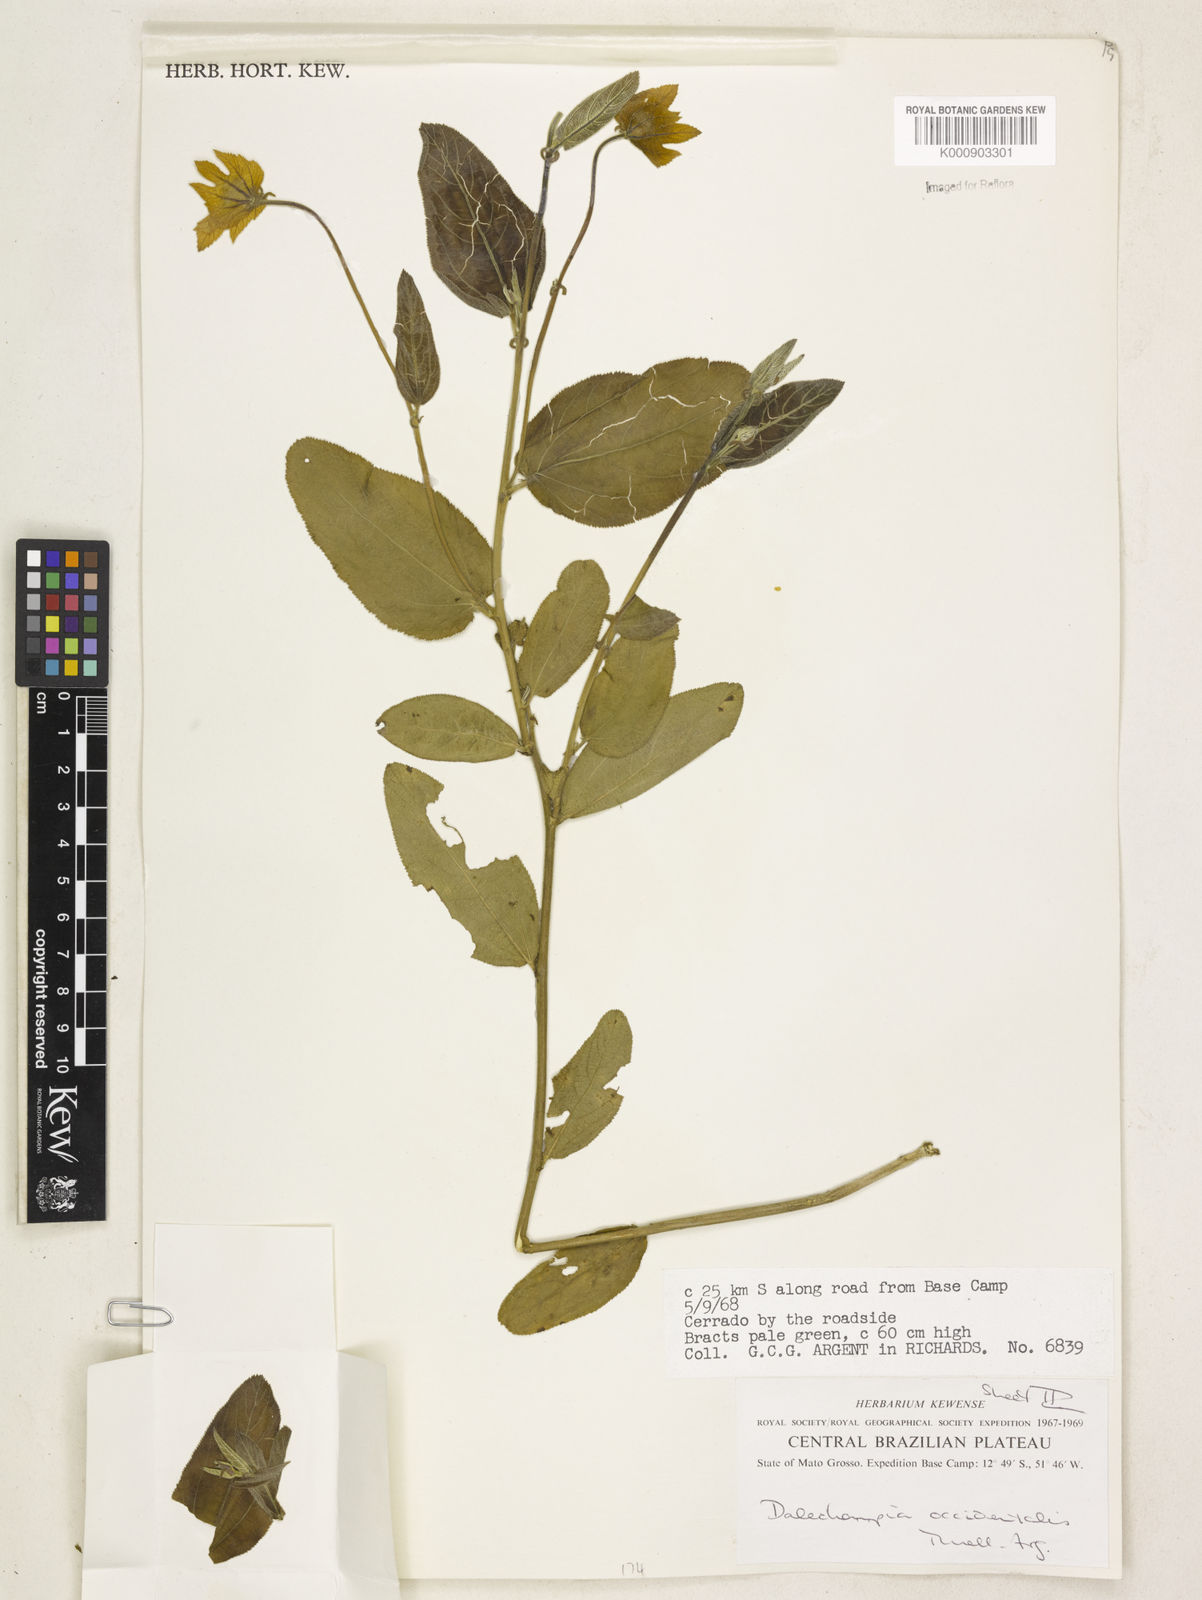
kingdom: Plantae
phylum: Tracheophyta
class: Magnoliopsida
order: Malpighiales
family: Euphorbiaceae
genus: Dalechampia
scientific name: Dalechampia
